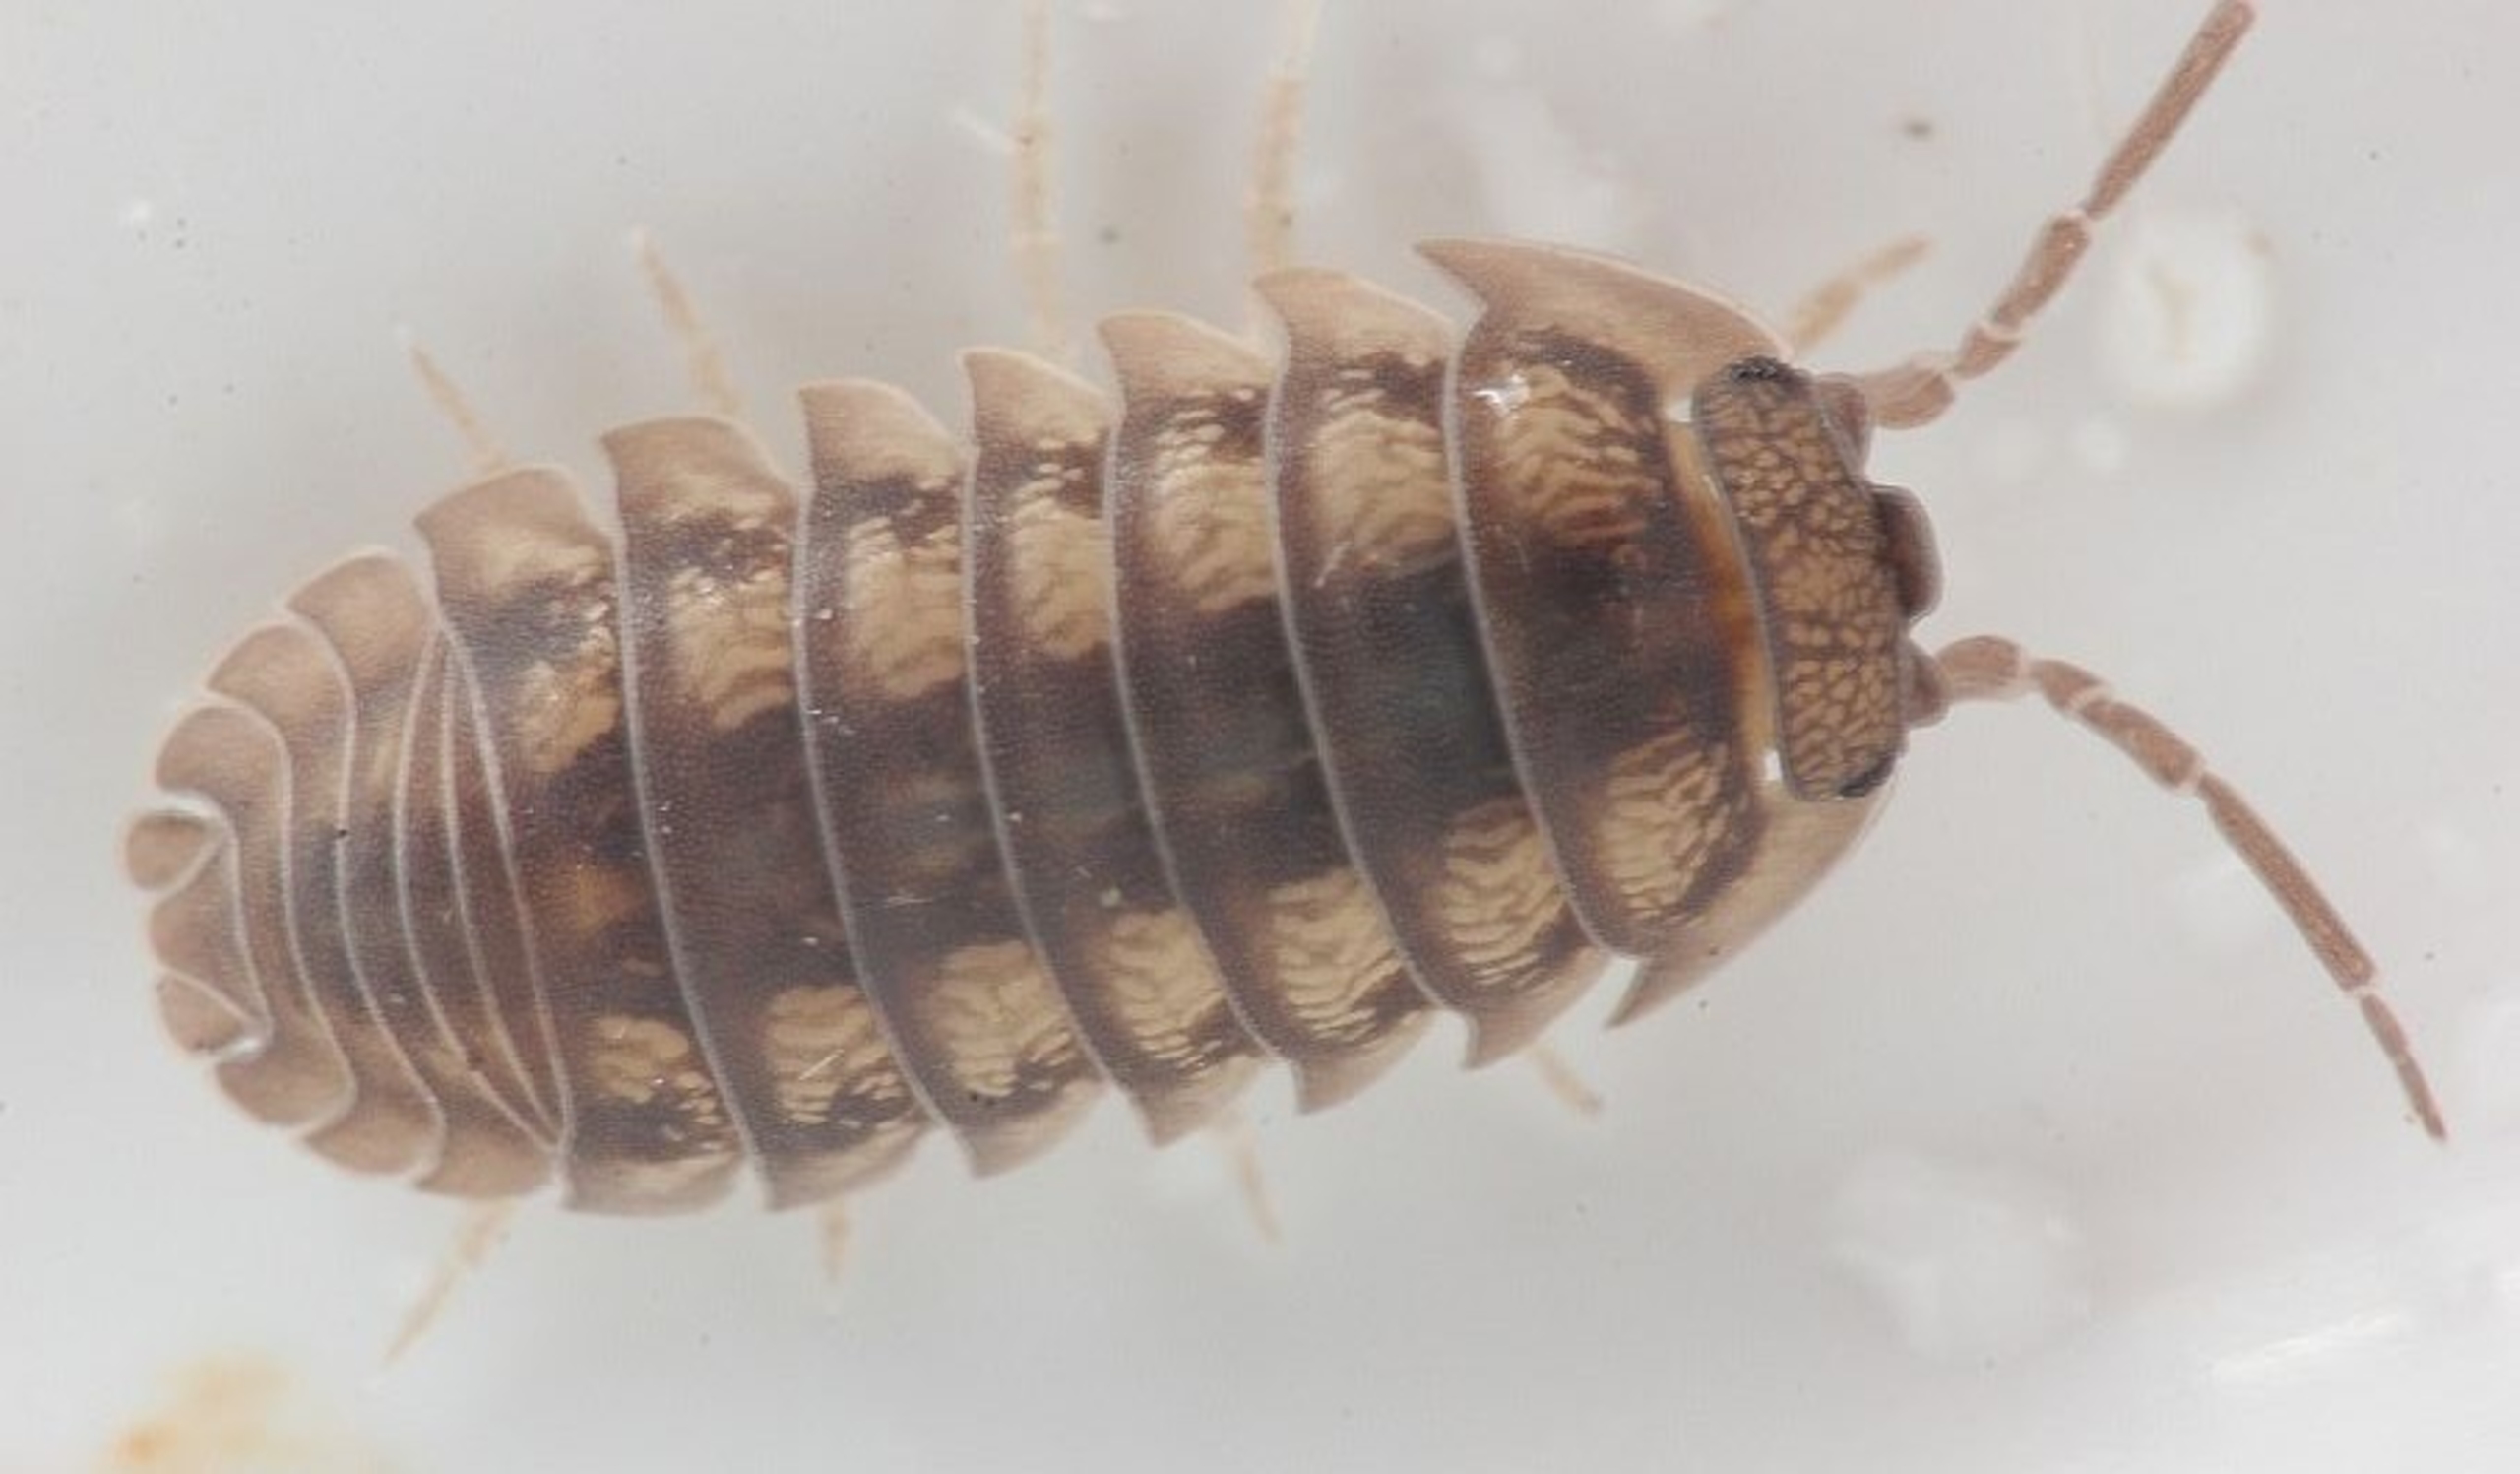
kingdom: Animalia
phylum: Arthropoda
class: Malacostraca
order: Isopoda
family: Armadillidiidae
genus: Armadillidium
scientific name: Armadillidium nasatum
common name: Fladnæset kuglebænkebider
